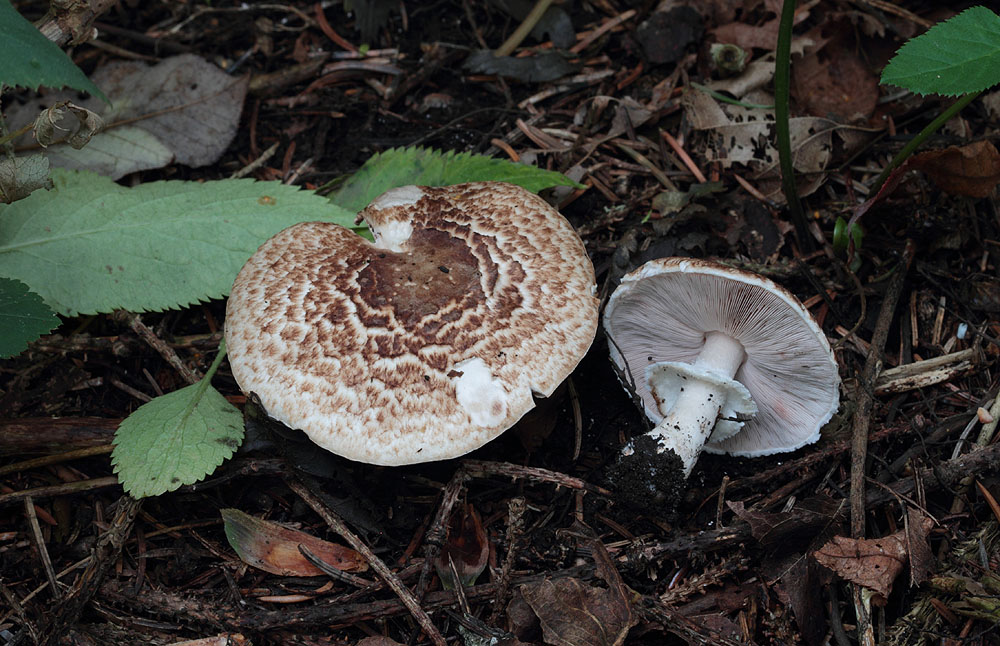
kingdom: Fungi
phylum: Basidiomycota
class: Agaricomycetes
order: Agaricales
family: Agaricaceae
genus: Agaricus
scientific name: Agaricus impudicus
